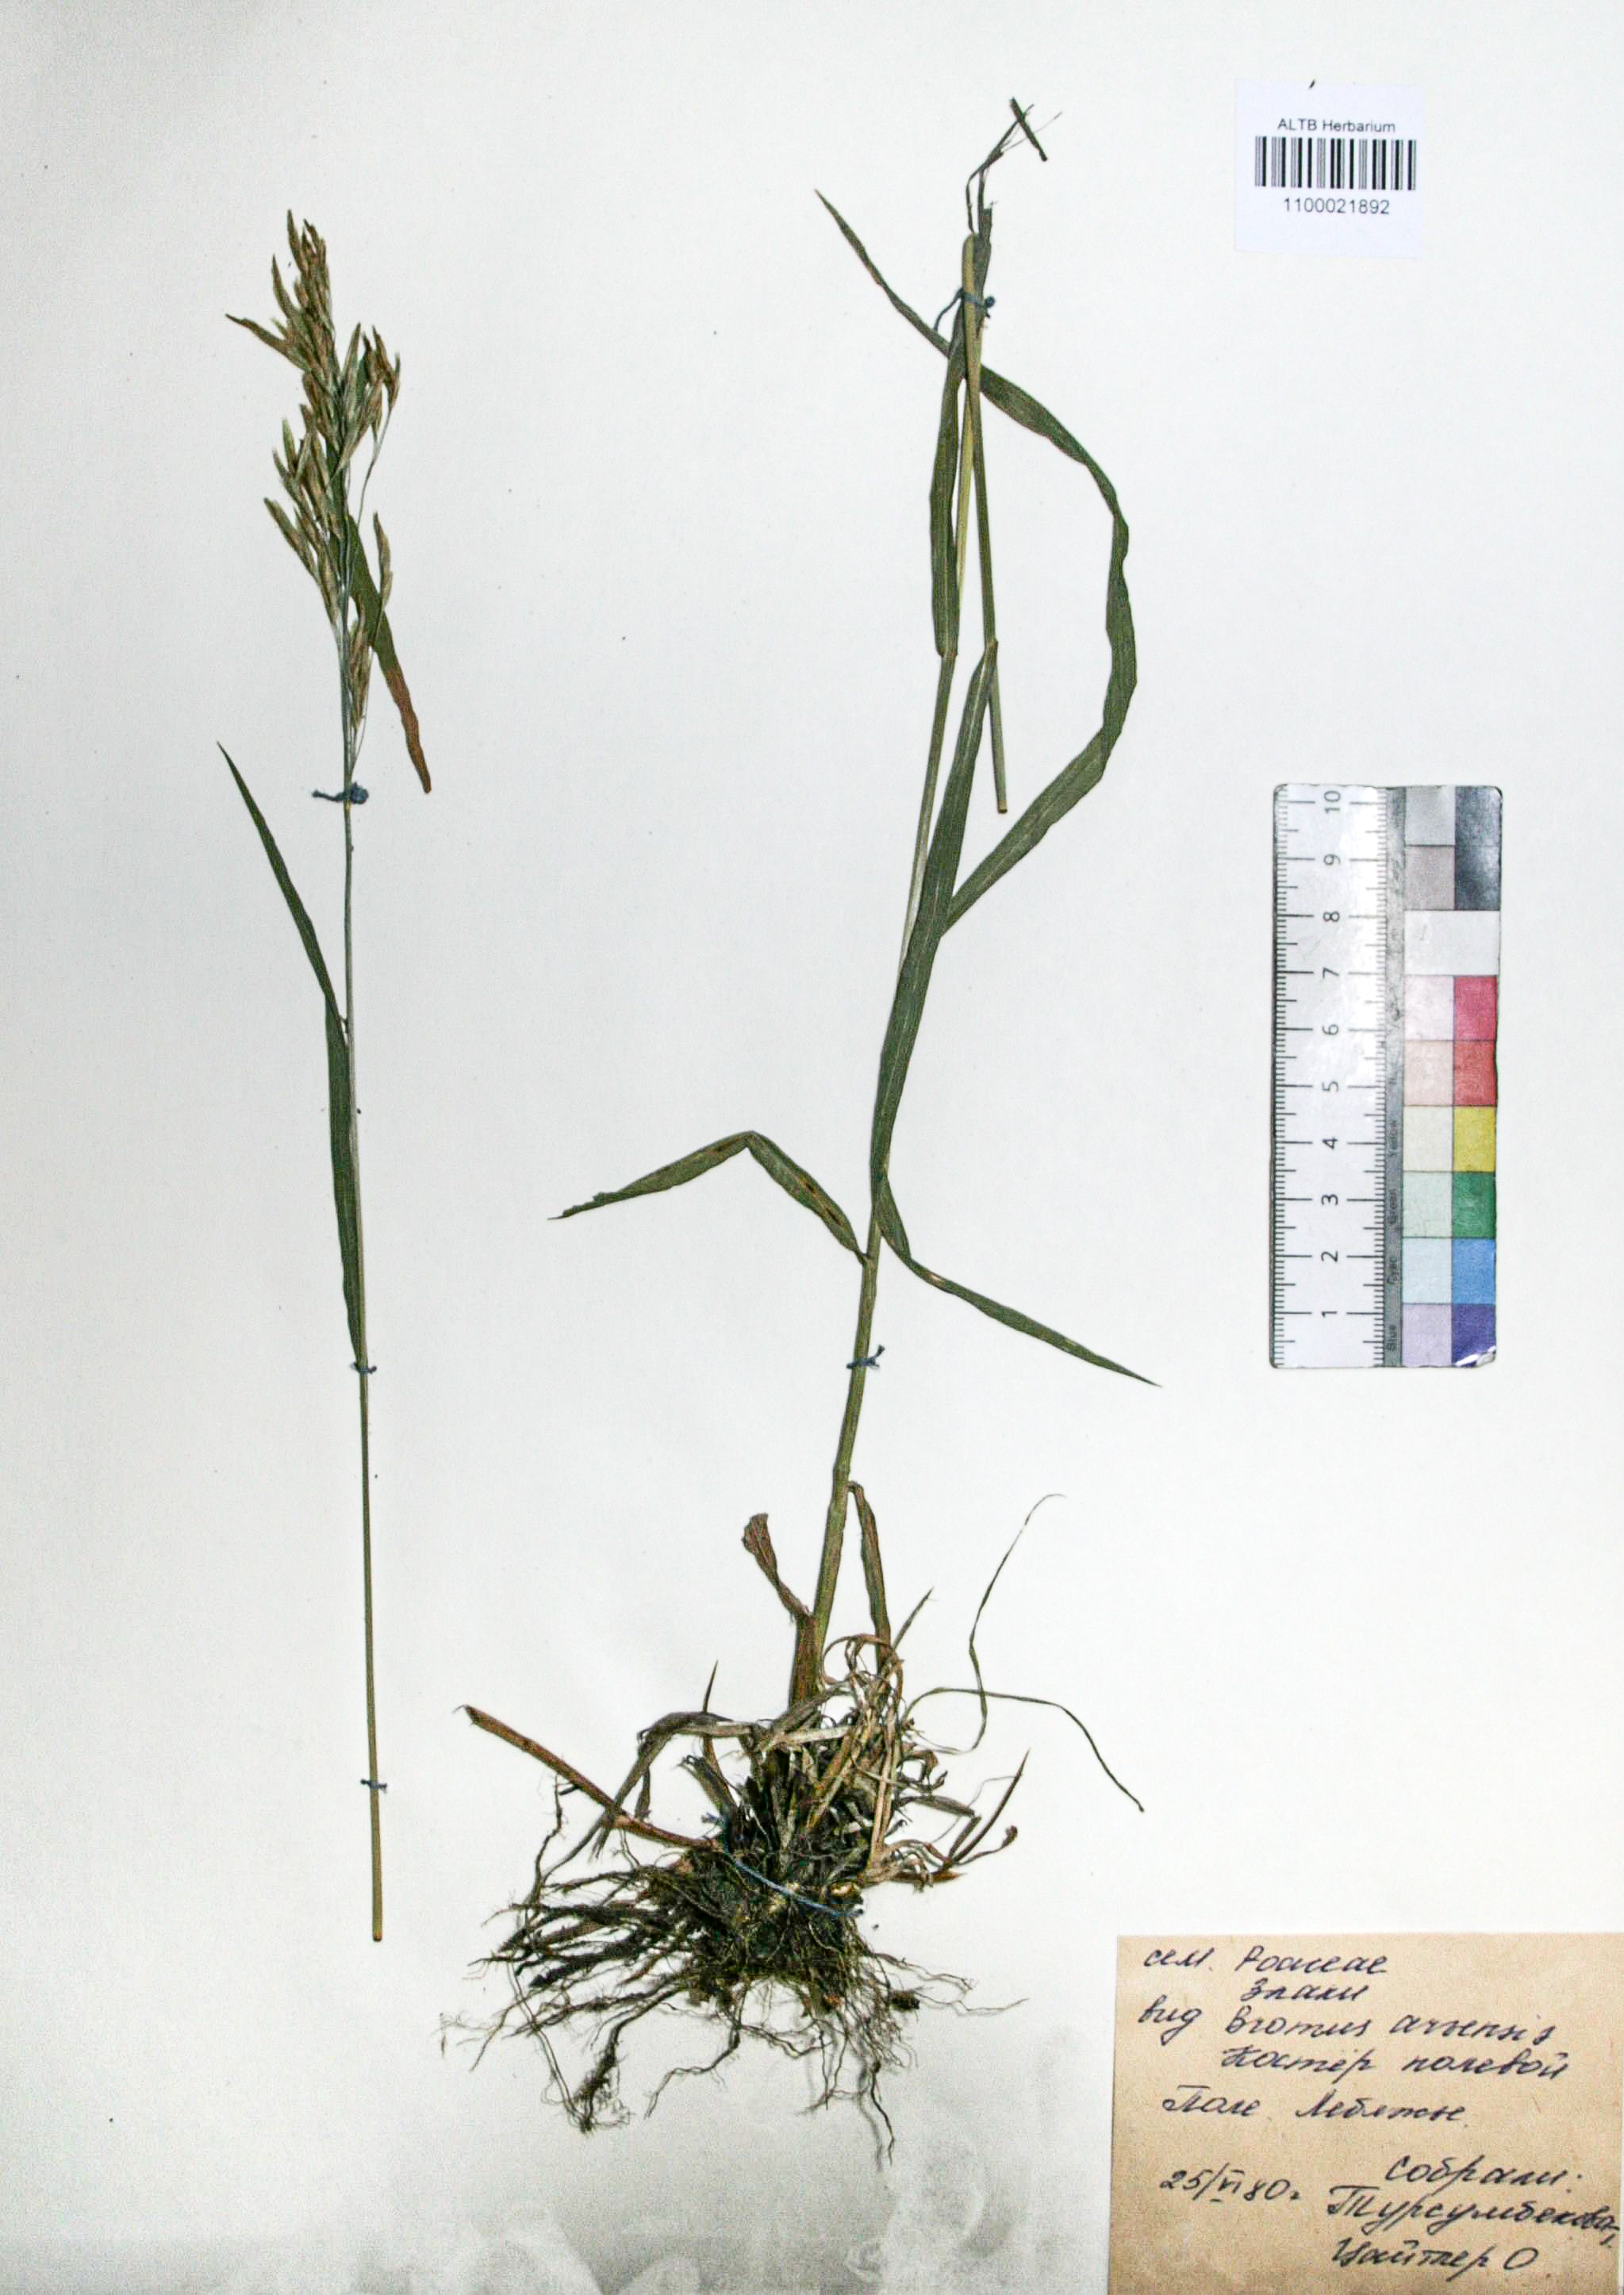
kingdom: Plantae
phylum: Tracheophyta
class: Liliopsida
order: Poales
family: Poaceae
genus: Bromus
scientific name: Bromus inermis
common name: Smooth brome
